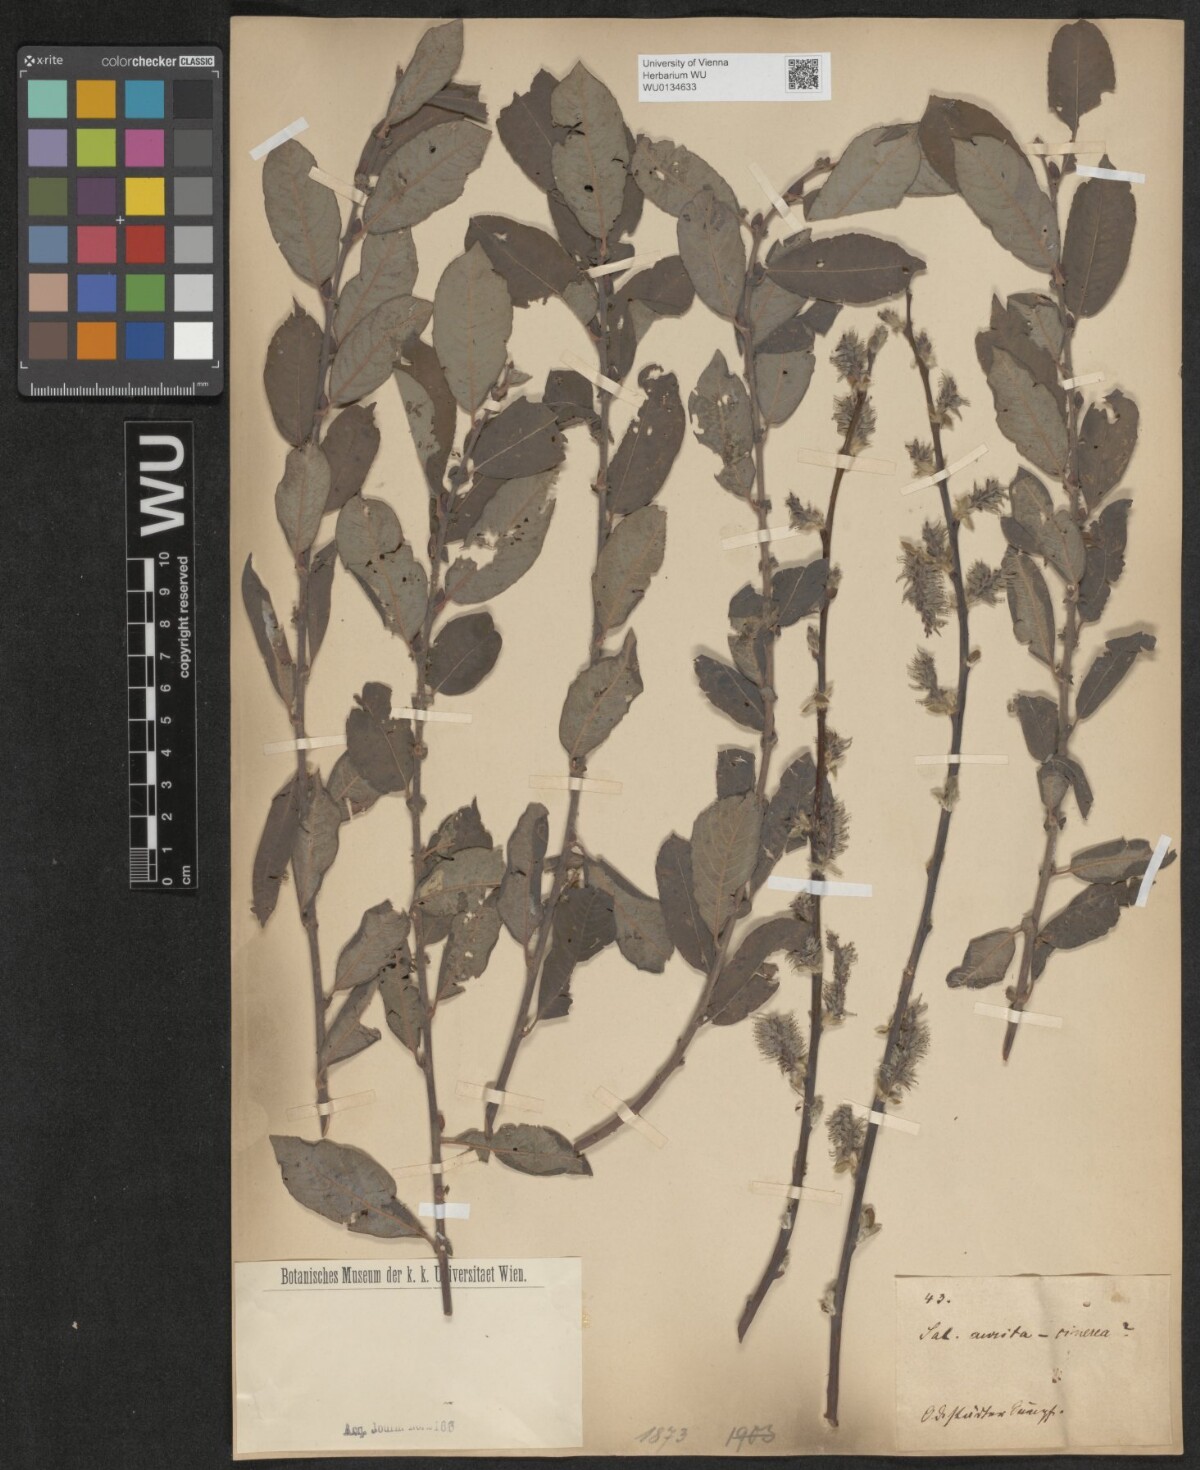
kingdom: Plantae
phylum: Tracheophyta
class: Magnoliopsida
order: Malpighiales
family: Salicaceae
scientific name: Salicaceae
